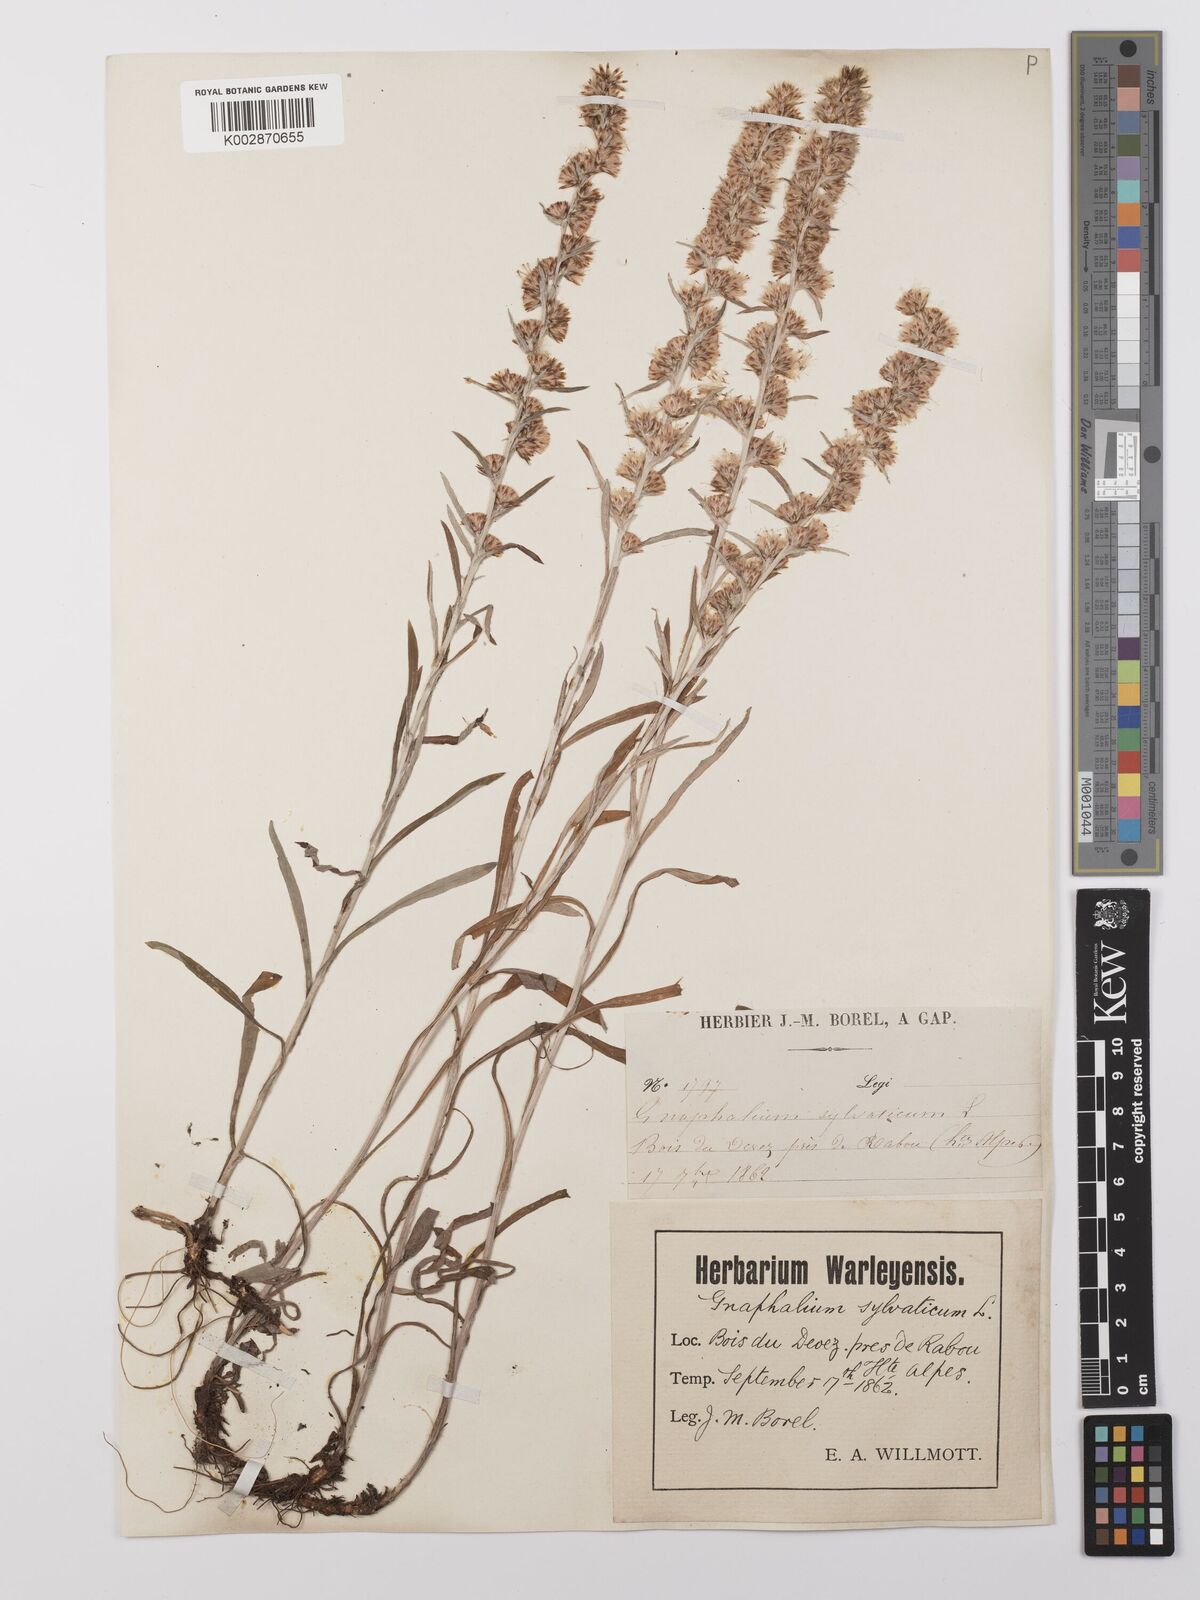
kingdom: Plantae
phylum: Tracheophyta
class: Magnoliopsida
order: Asterales
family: Asteraceae
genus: Omalotheca
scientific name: Omalotheca sylvatica
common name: Heath cudweed
